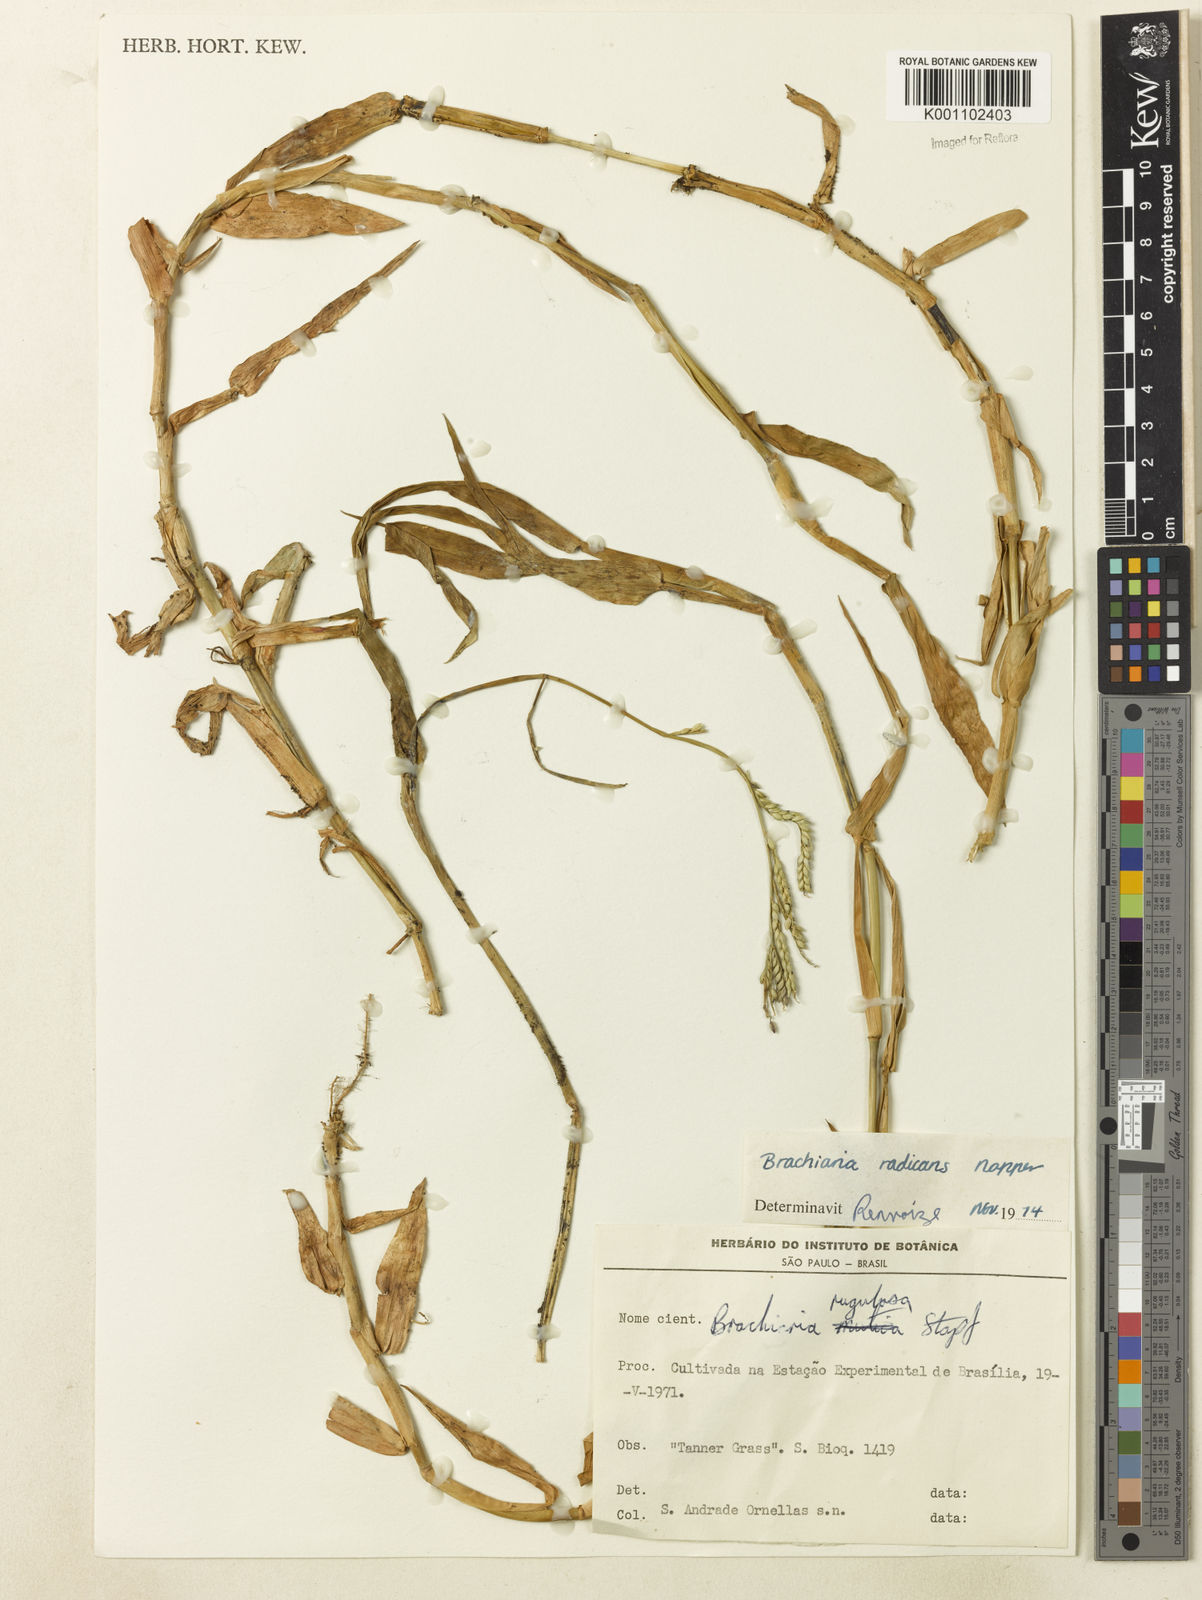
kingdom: Plantae
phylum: Tracheophyta
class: Liliopsida
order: Poales
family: Poaceae
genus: Urochloa
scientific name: Urochloa arrecta
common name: African signalgrass
